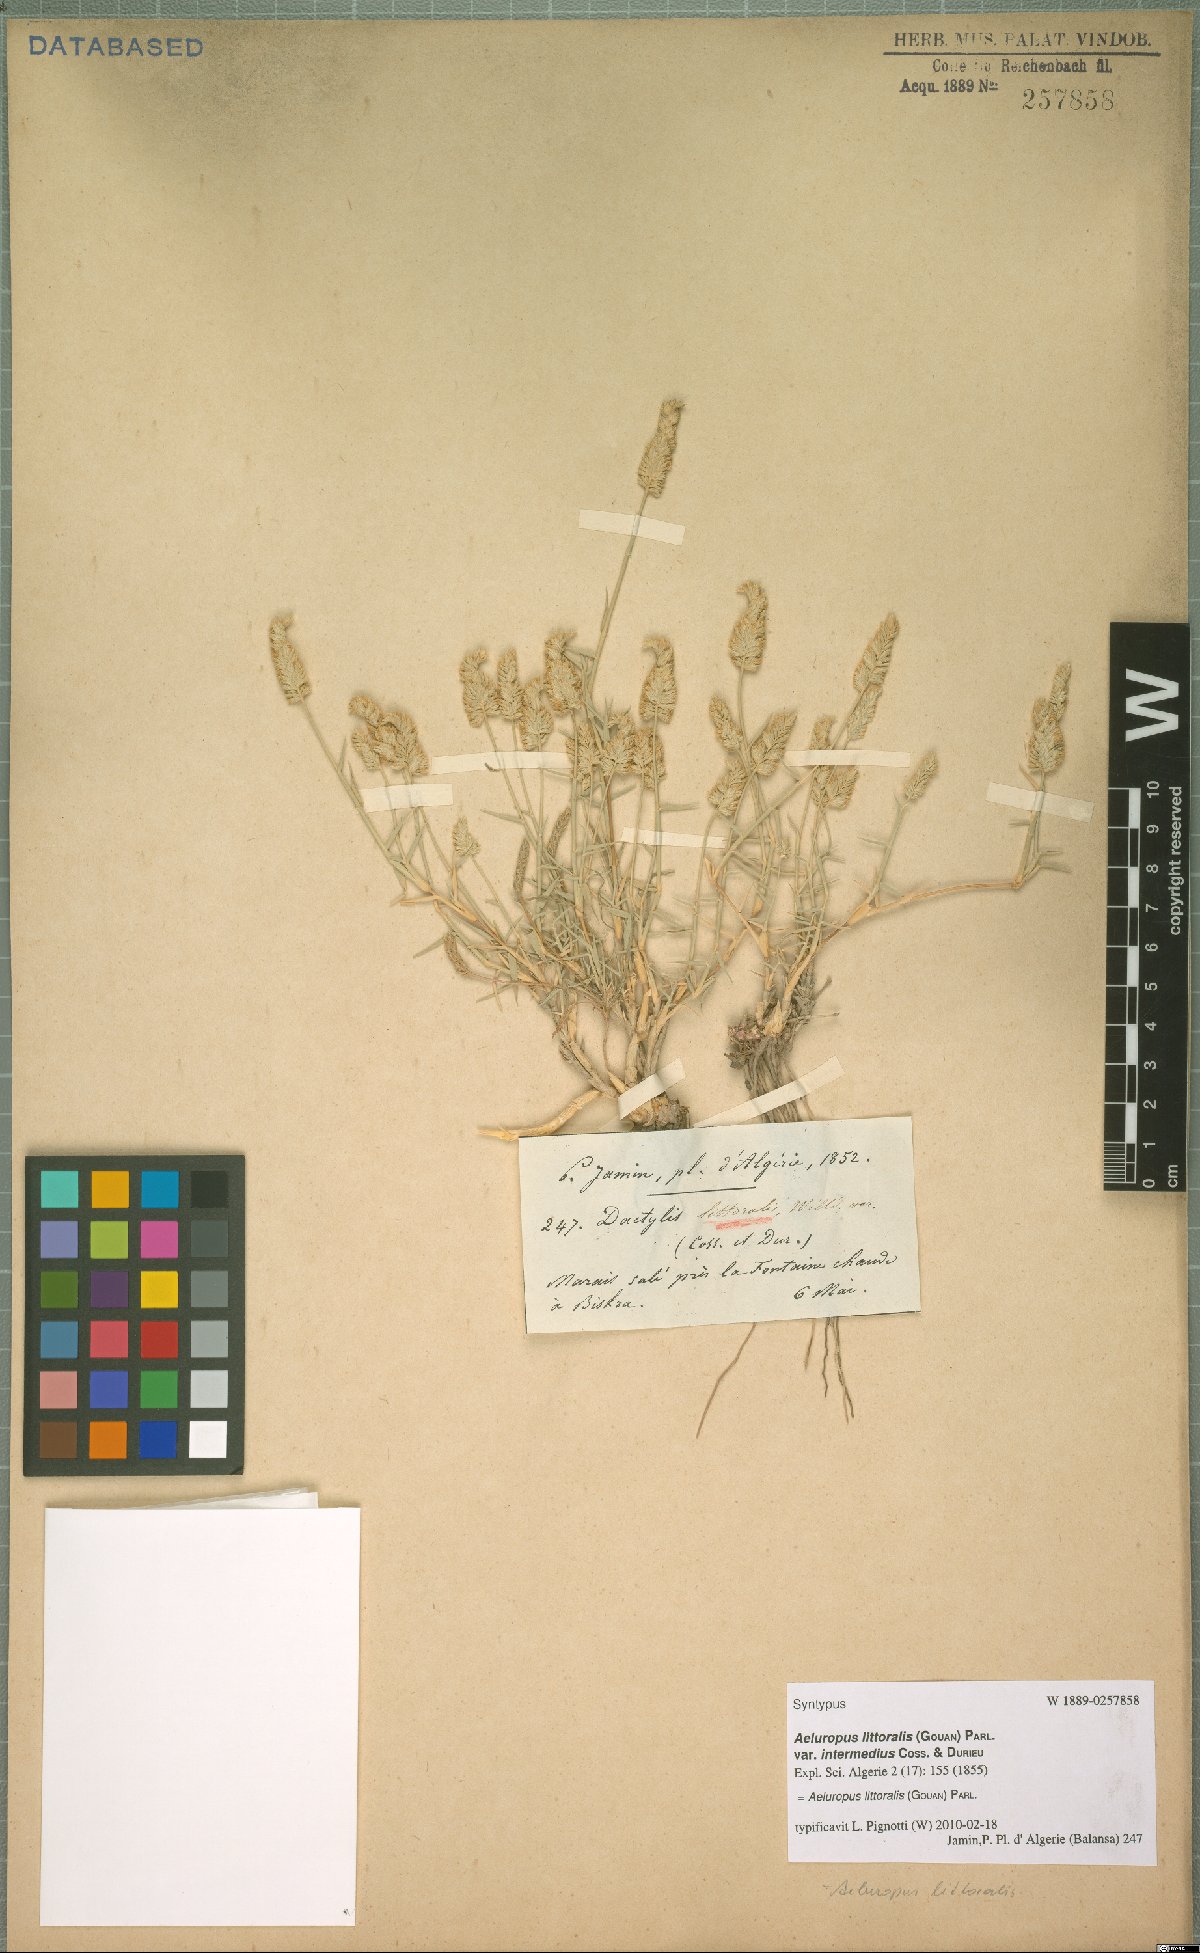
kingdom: Plantae
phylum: Tracheophyta
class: Liliopsida
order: Poales
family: Poaceae
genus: Aeluropus
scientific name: Aeluropus littoralis
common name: Indian walnut
